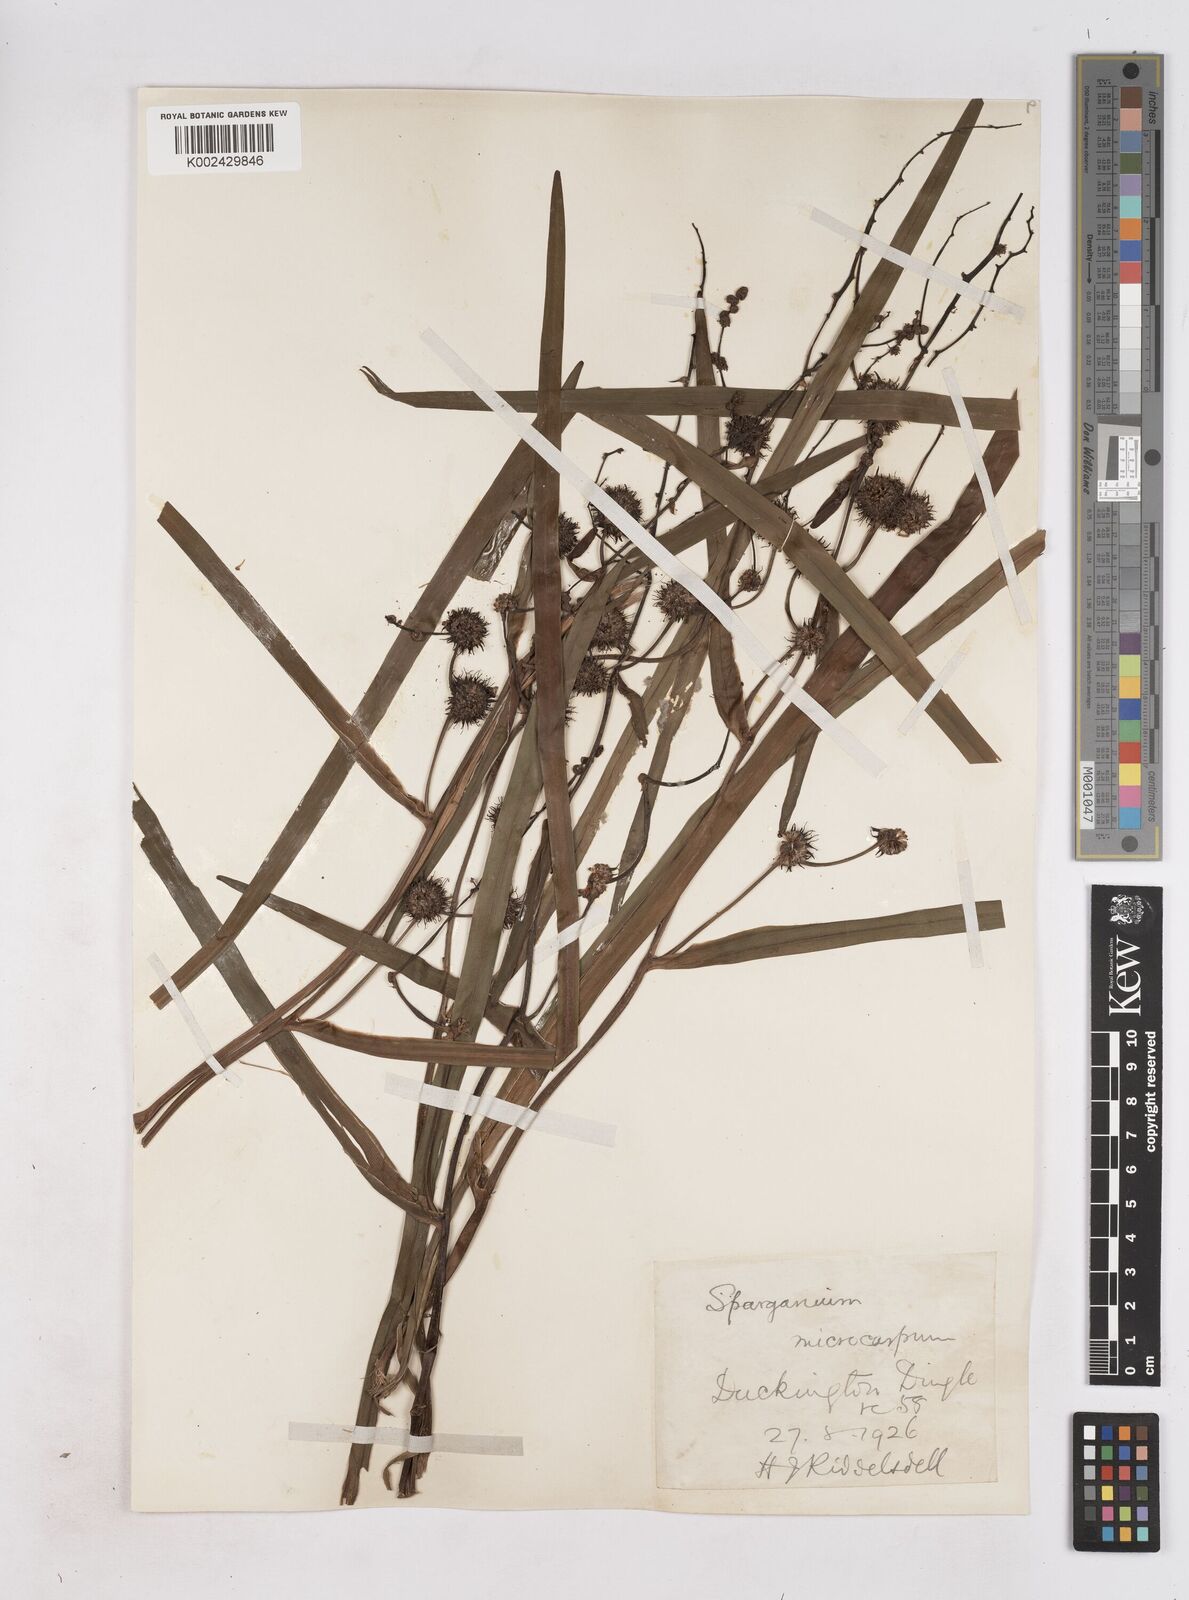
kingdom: Plantae
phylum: Tracheophyta
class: Liliopsida
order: Poales
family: Typhaceae
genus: Sparganium
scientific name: Sparganium erectum
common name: Branched bur-reed
